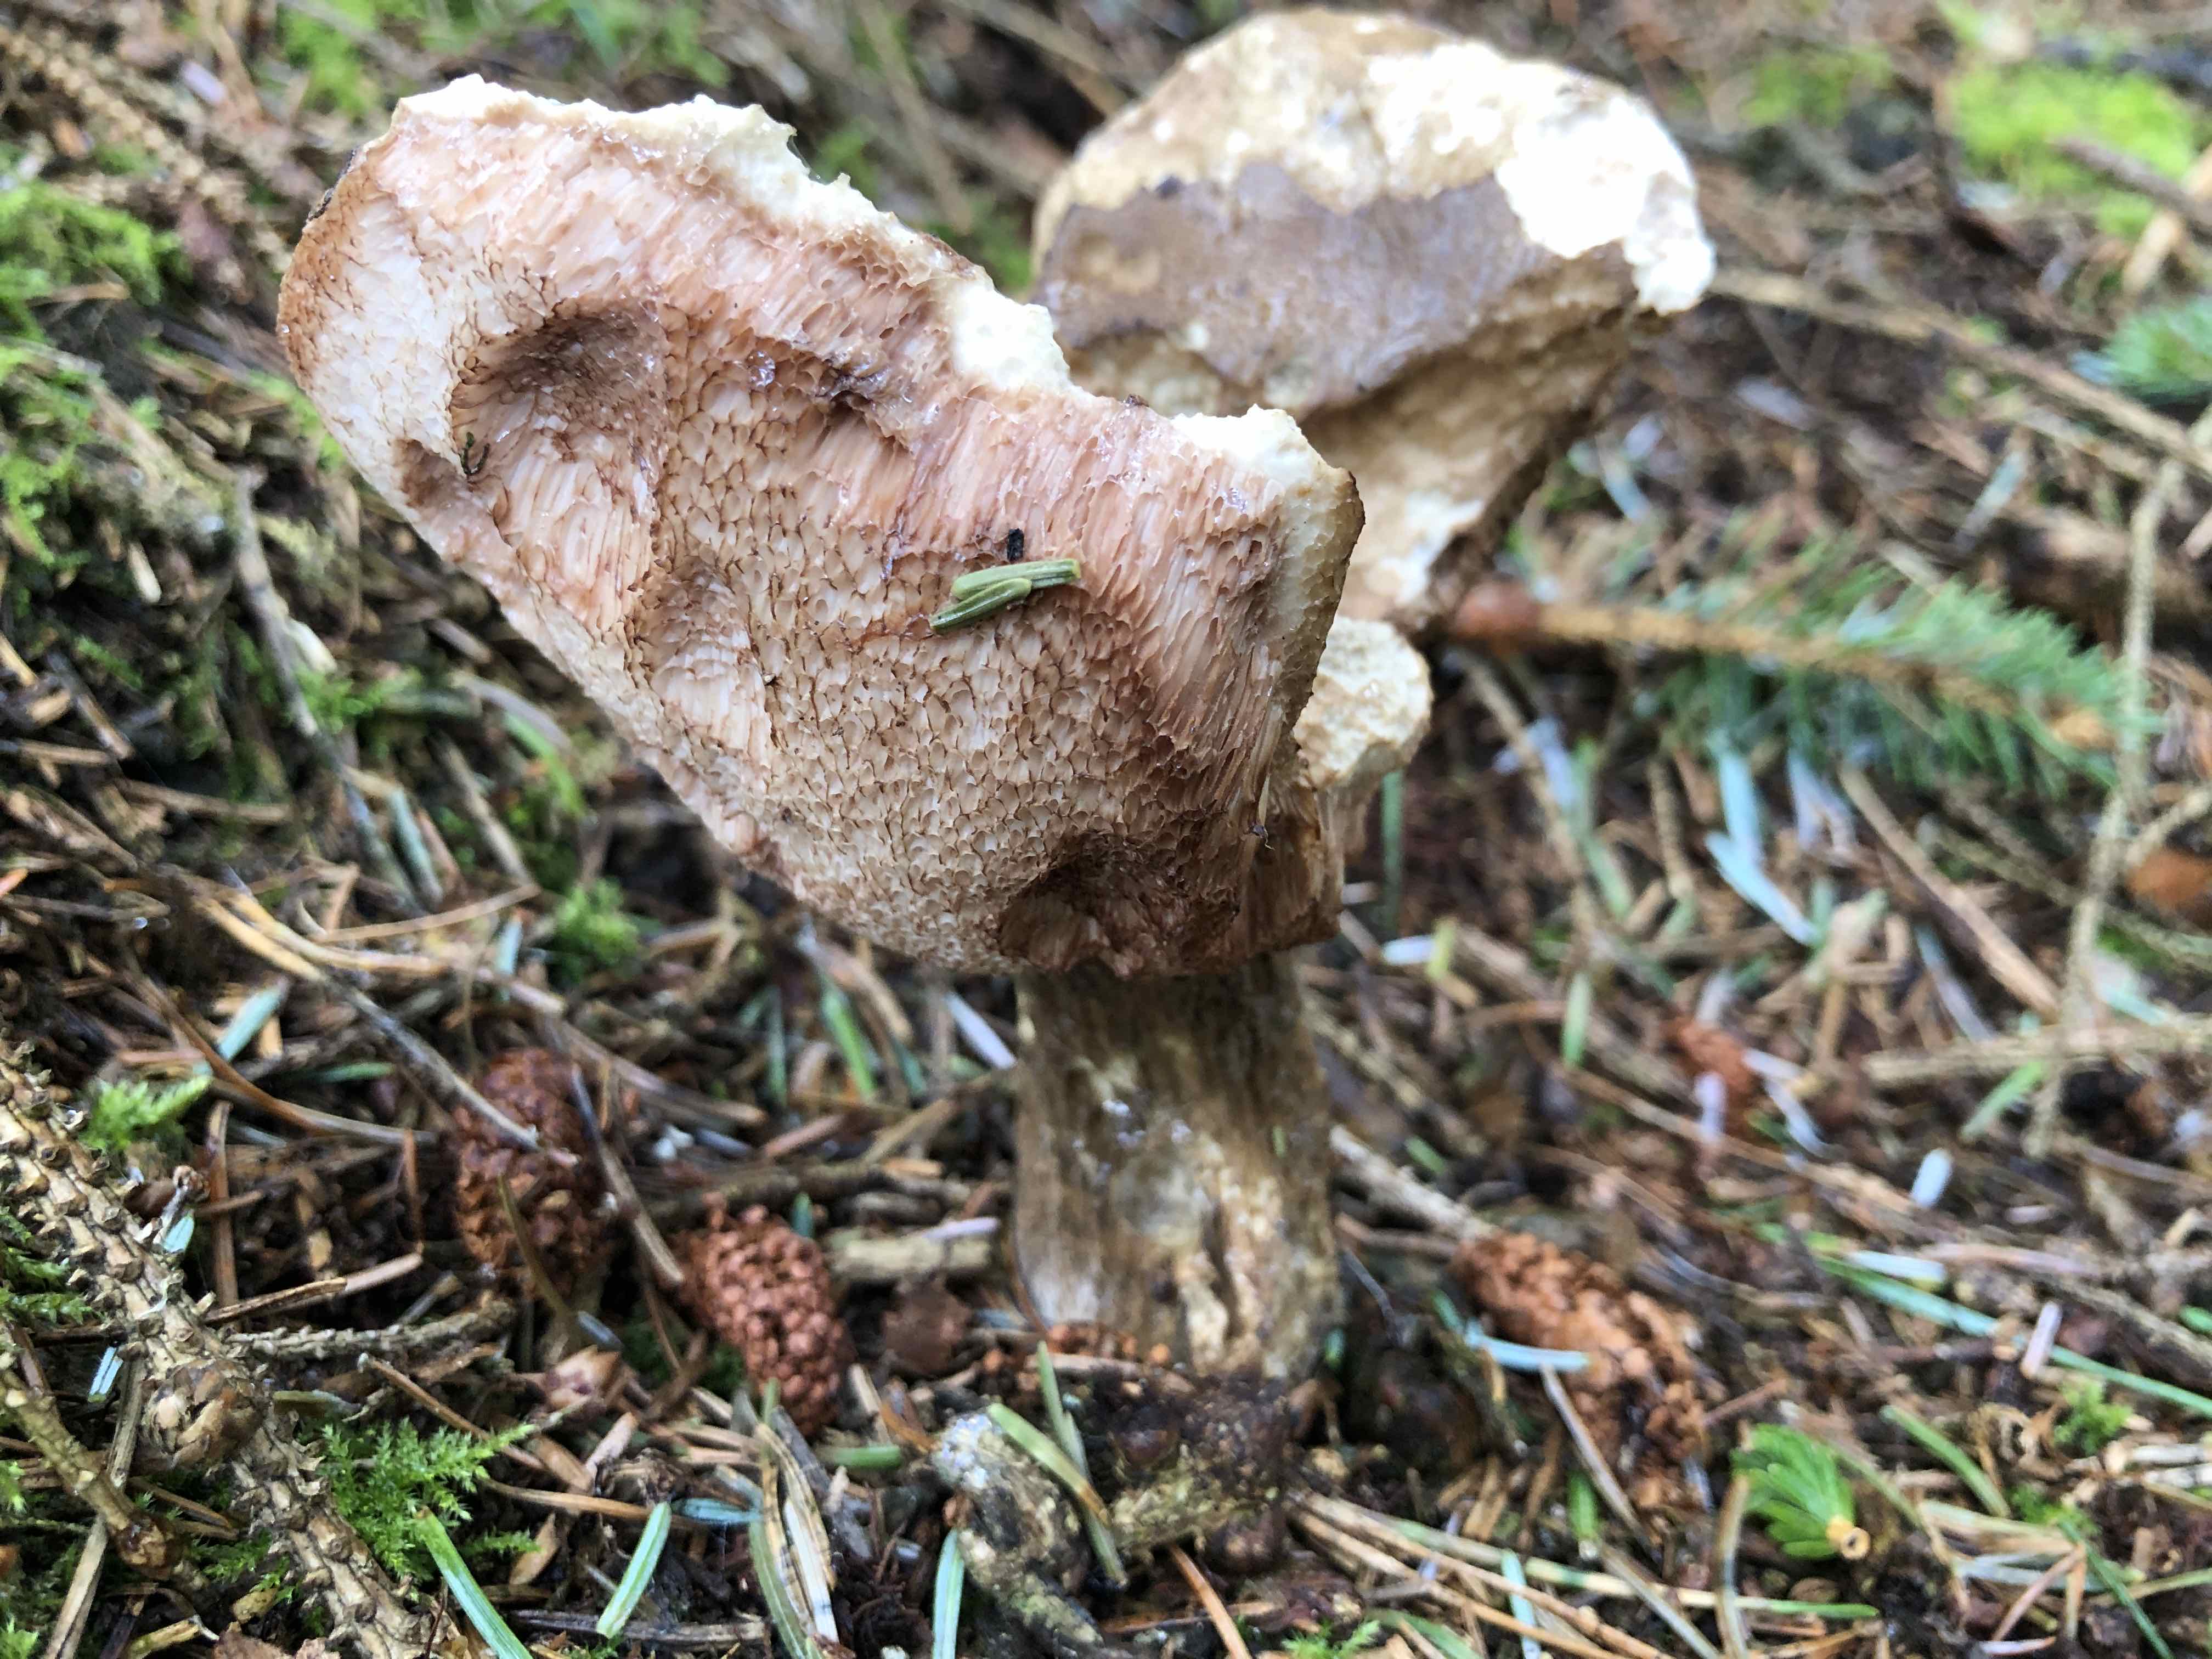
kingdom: Fungi
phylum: Basidiomycota
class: Agaricomycetes
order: Boletales
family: Boletaceae
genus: Tylopilus
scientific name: Tylopilus felleus
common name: galderørhat
